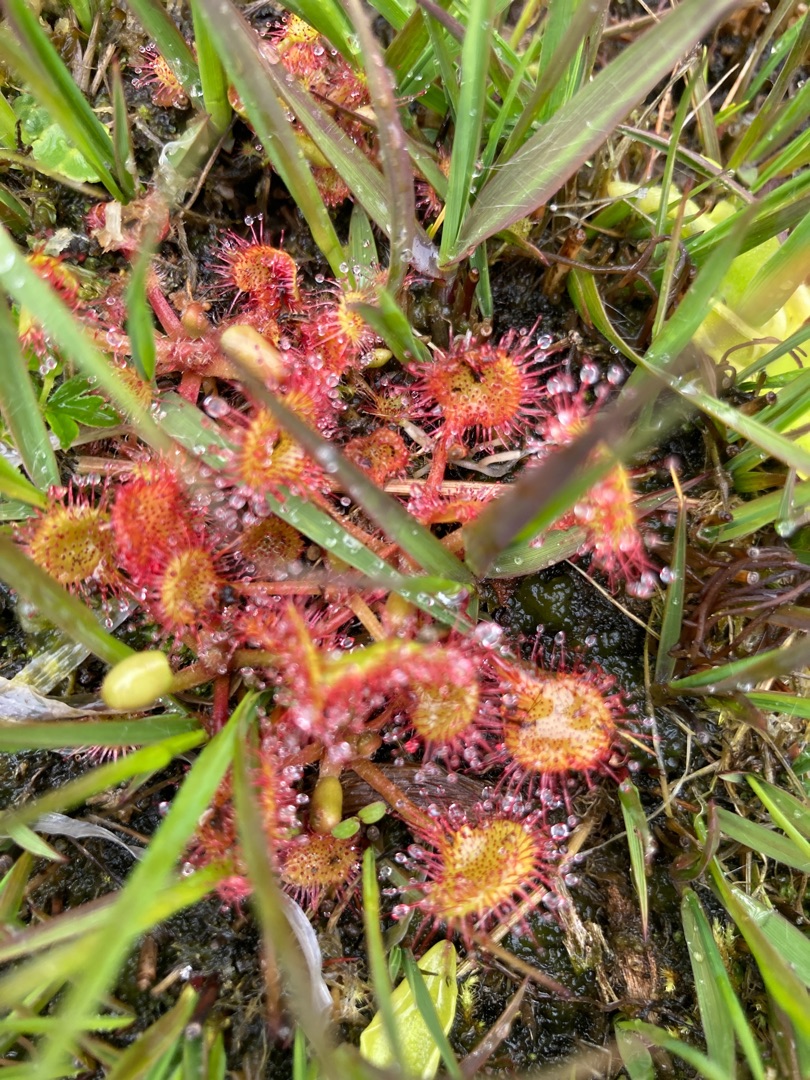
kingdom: Plantae
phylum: Tracheophyta
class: Magnoliopsida
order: Caryophyllales
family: Droseraceae
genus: Drosera
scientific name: Drosera rotundifolia
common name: Rundbladet soldug
